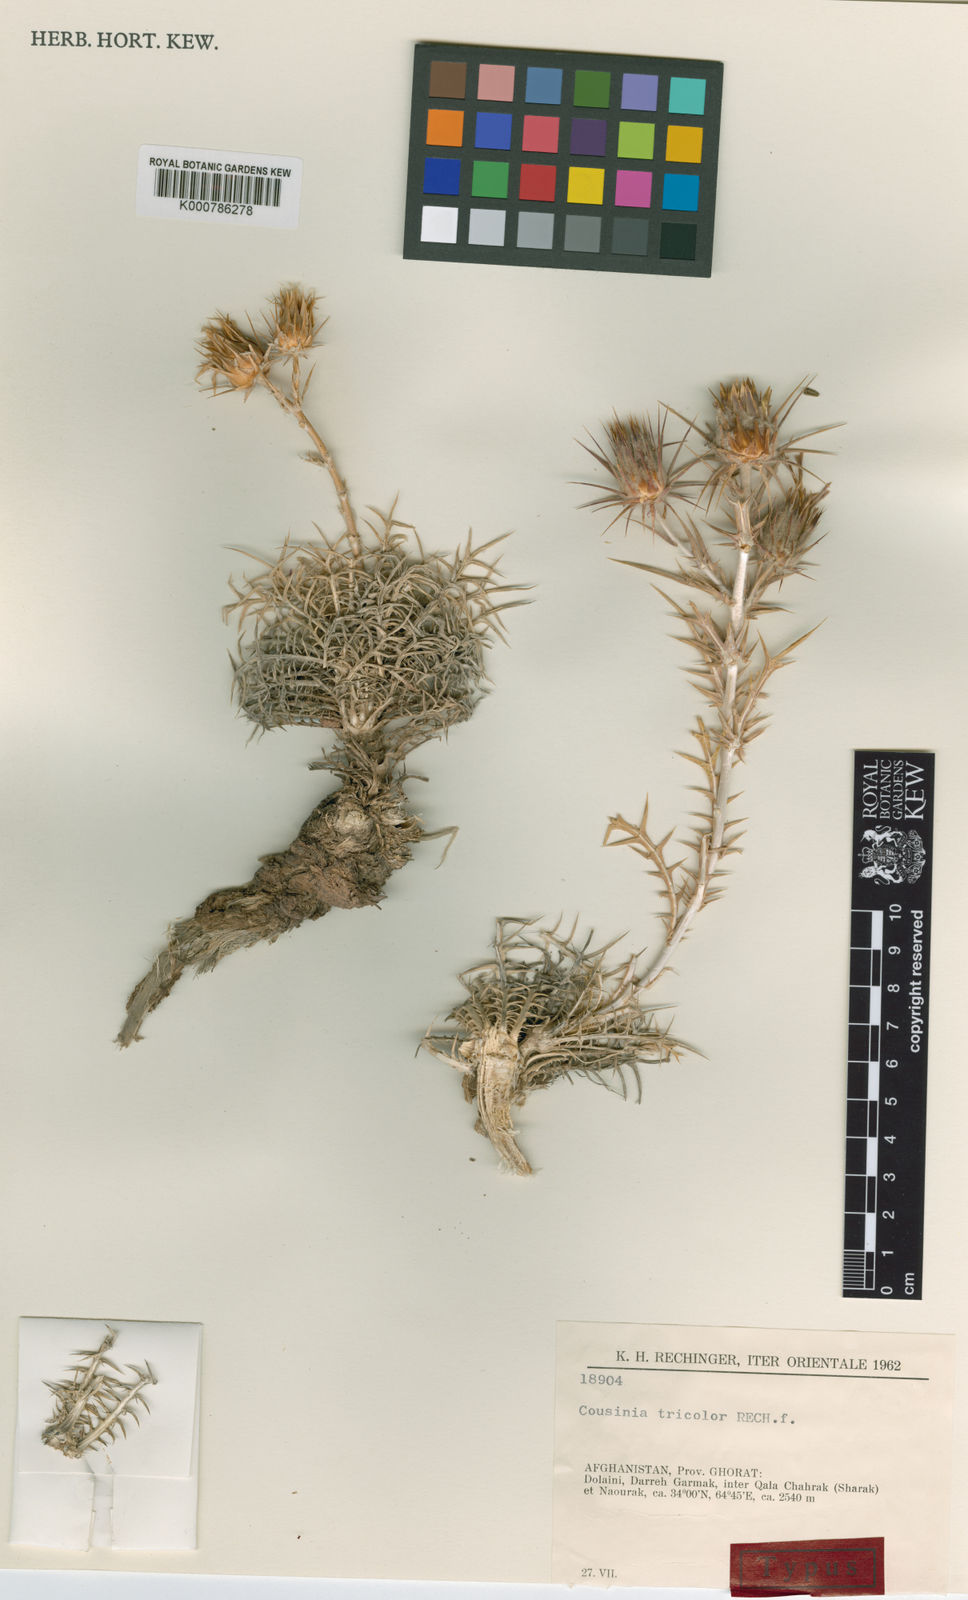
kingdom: Plantae
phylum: Tracheophyta
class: Magnoliopsida
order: Asterales
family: Asteraceae
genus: Cousinia
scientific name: Cousinia tricolor
